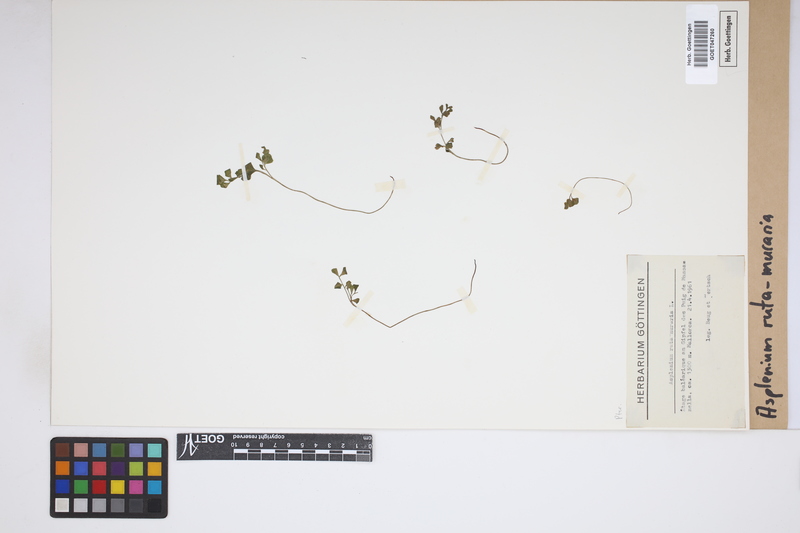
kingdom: Plantae
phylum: Tracheophyta
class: Polypodiopsida
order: Polypodiales
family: Aspleniaceae
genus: Asplenium
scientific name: Asplenium ruta-muraria
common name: Wall-rue
